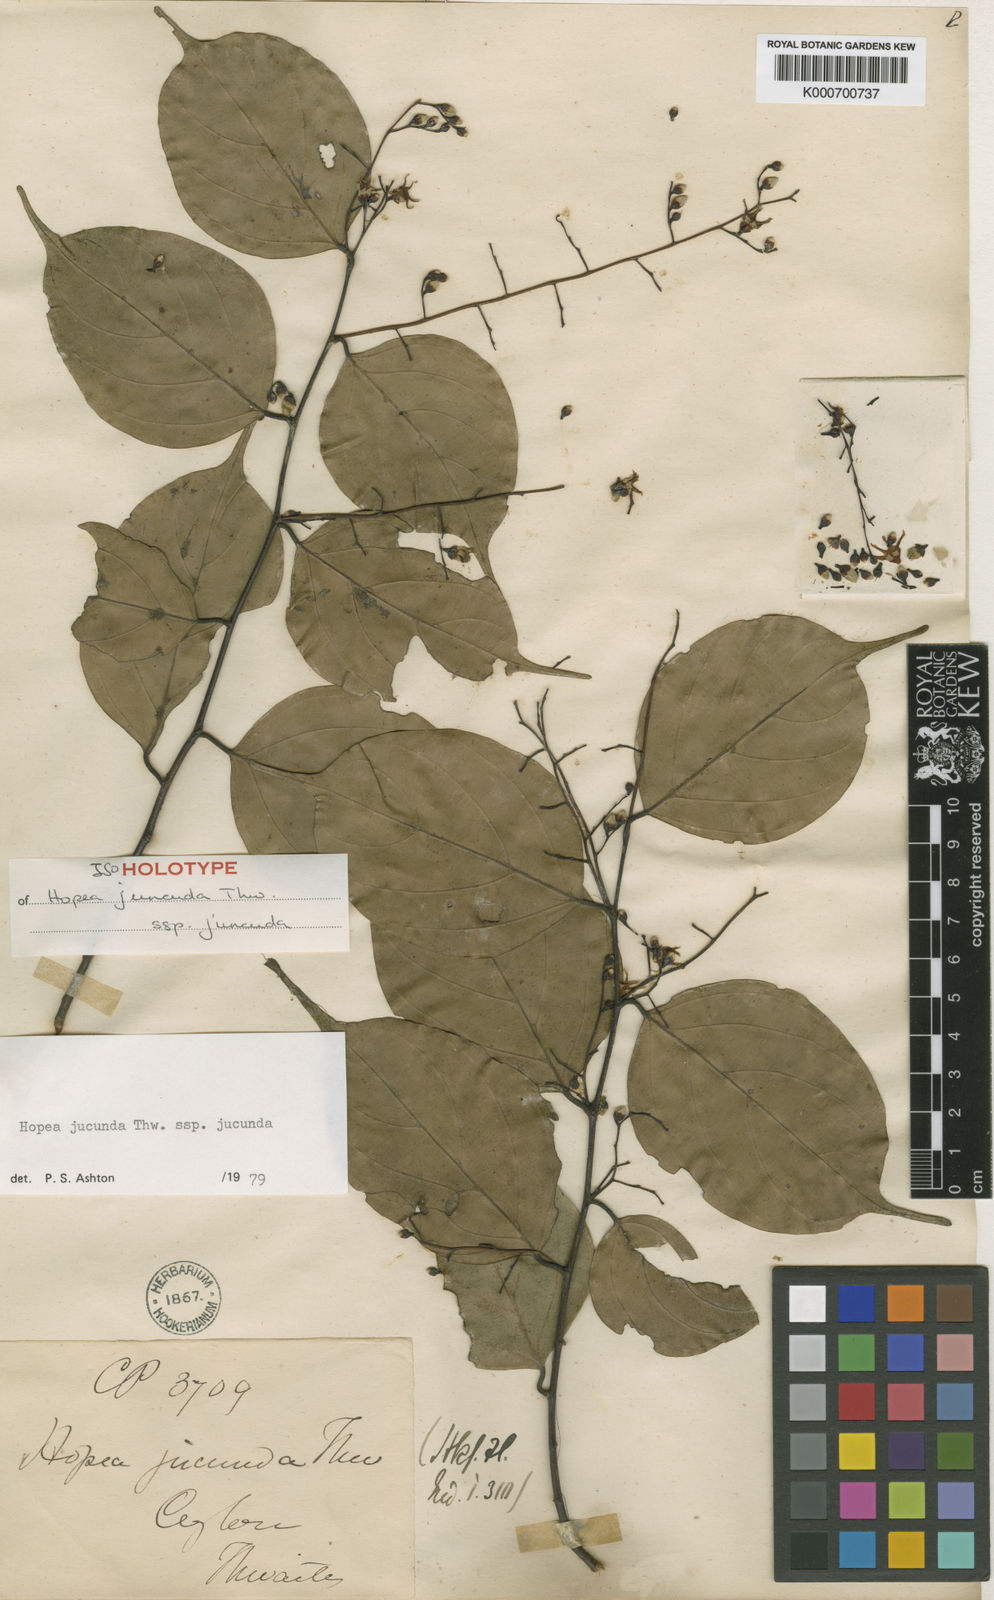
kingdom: Plantae
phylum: Tracheophyta
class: Magnoliopsida
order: Malvales
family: Dipterocarpaceae
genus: Hopea
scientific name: Hopea jucunda
